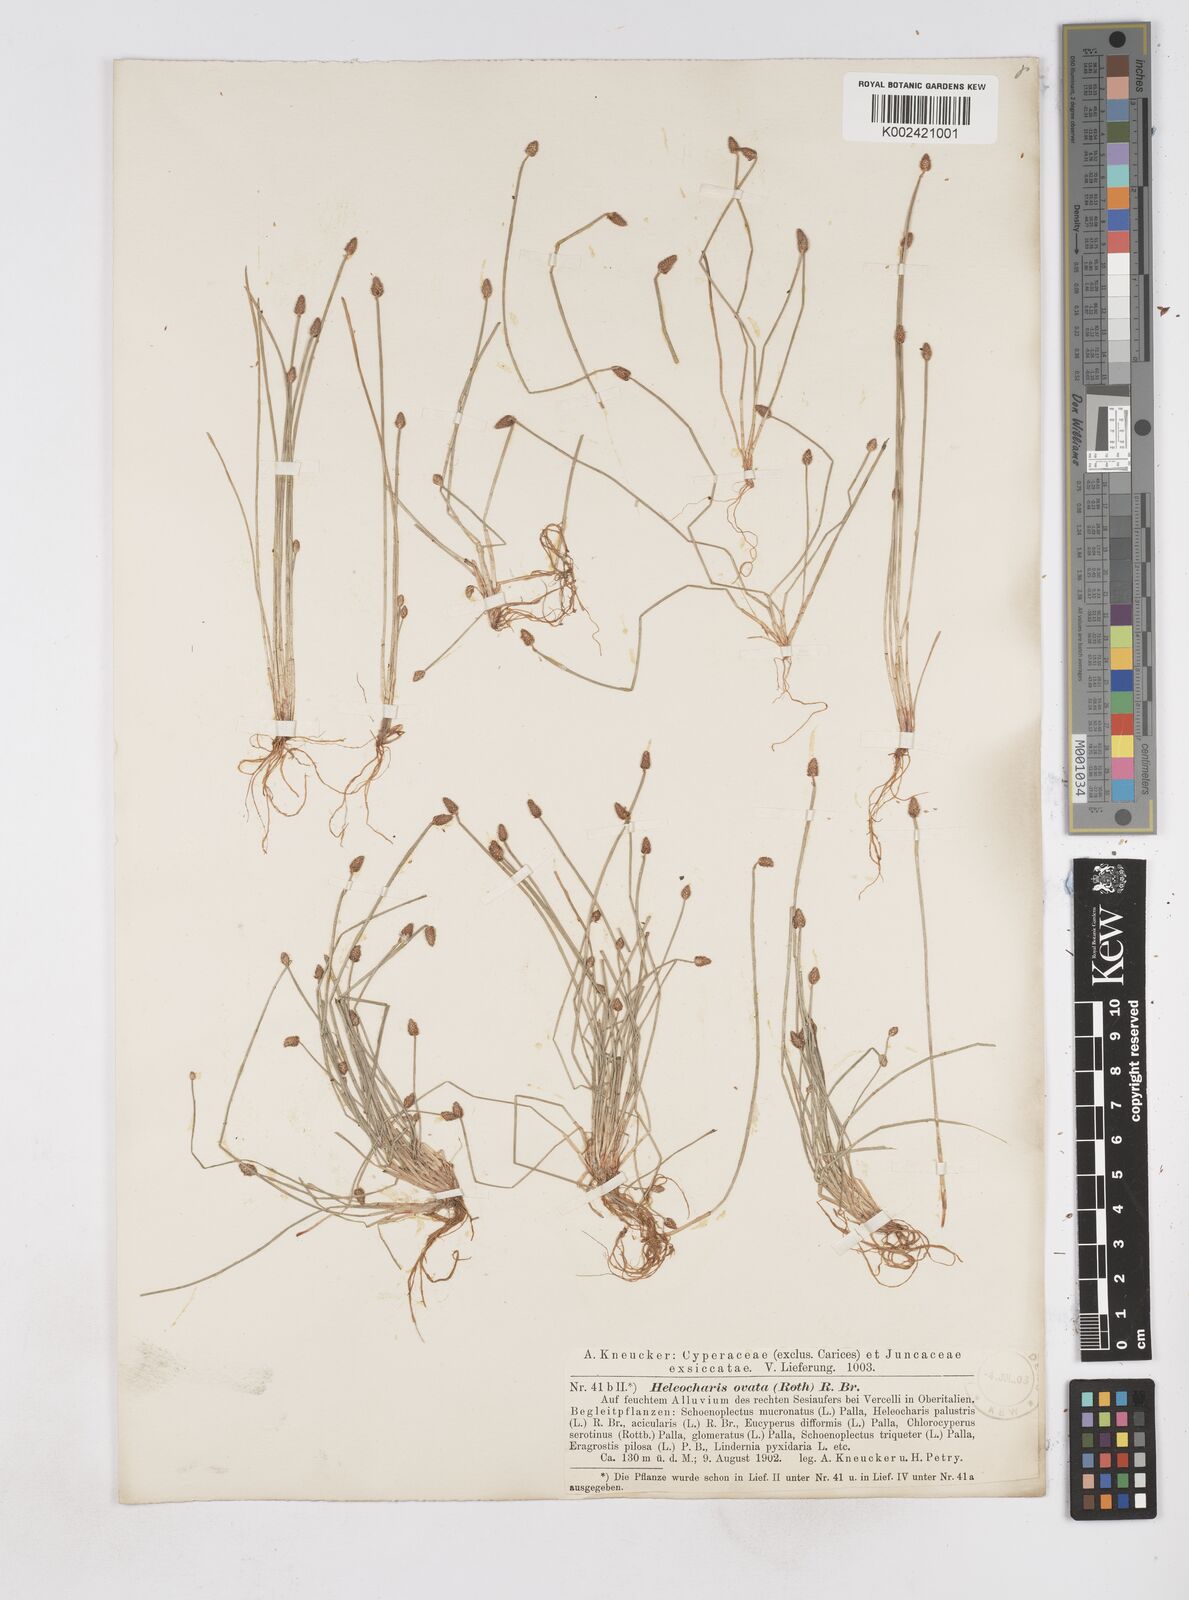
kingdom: Plantae
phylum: Tracheophyta
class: Liliopsida
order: Poales
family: Cyperaceae
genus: Eleocharis
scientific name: Eleocharis ovata
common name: Oval spike-rush
